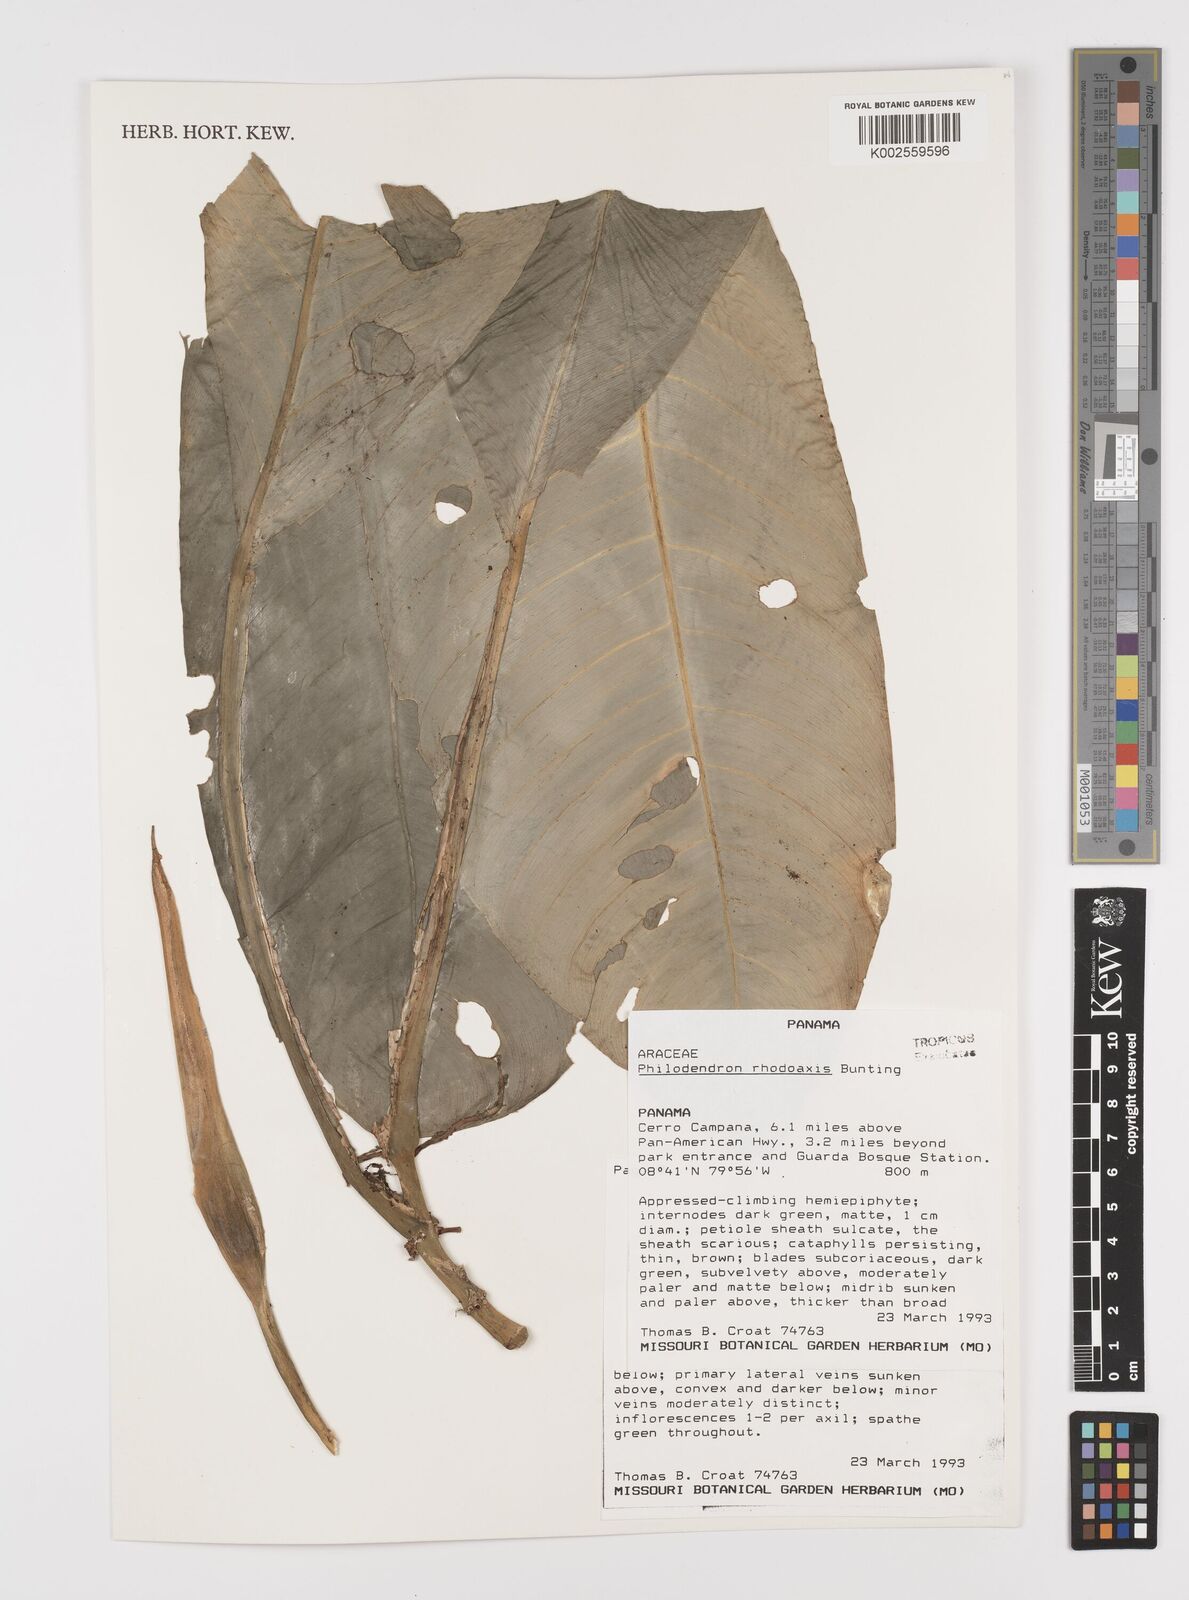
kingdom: Plantae
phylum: Tracheophyta
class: Liliopsida
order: Alismatales
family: Araceae
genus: Philodendron
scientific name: Philodendron rhodoaxis
